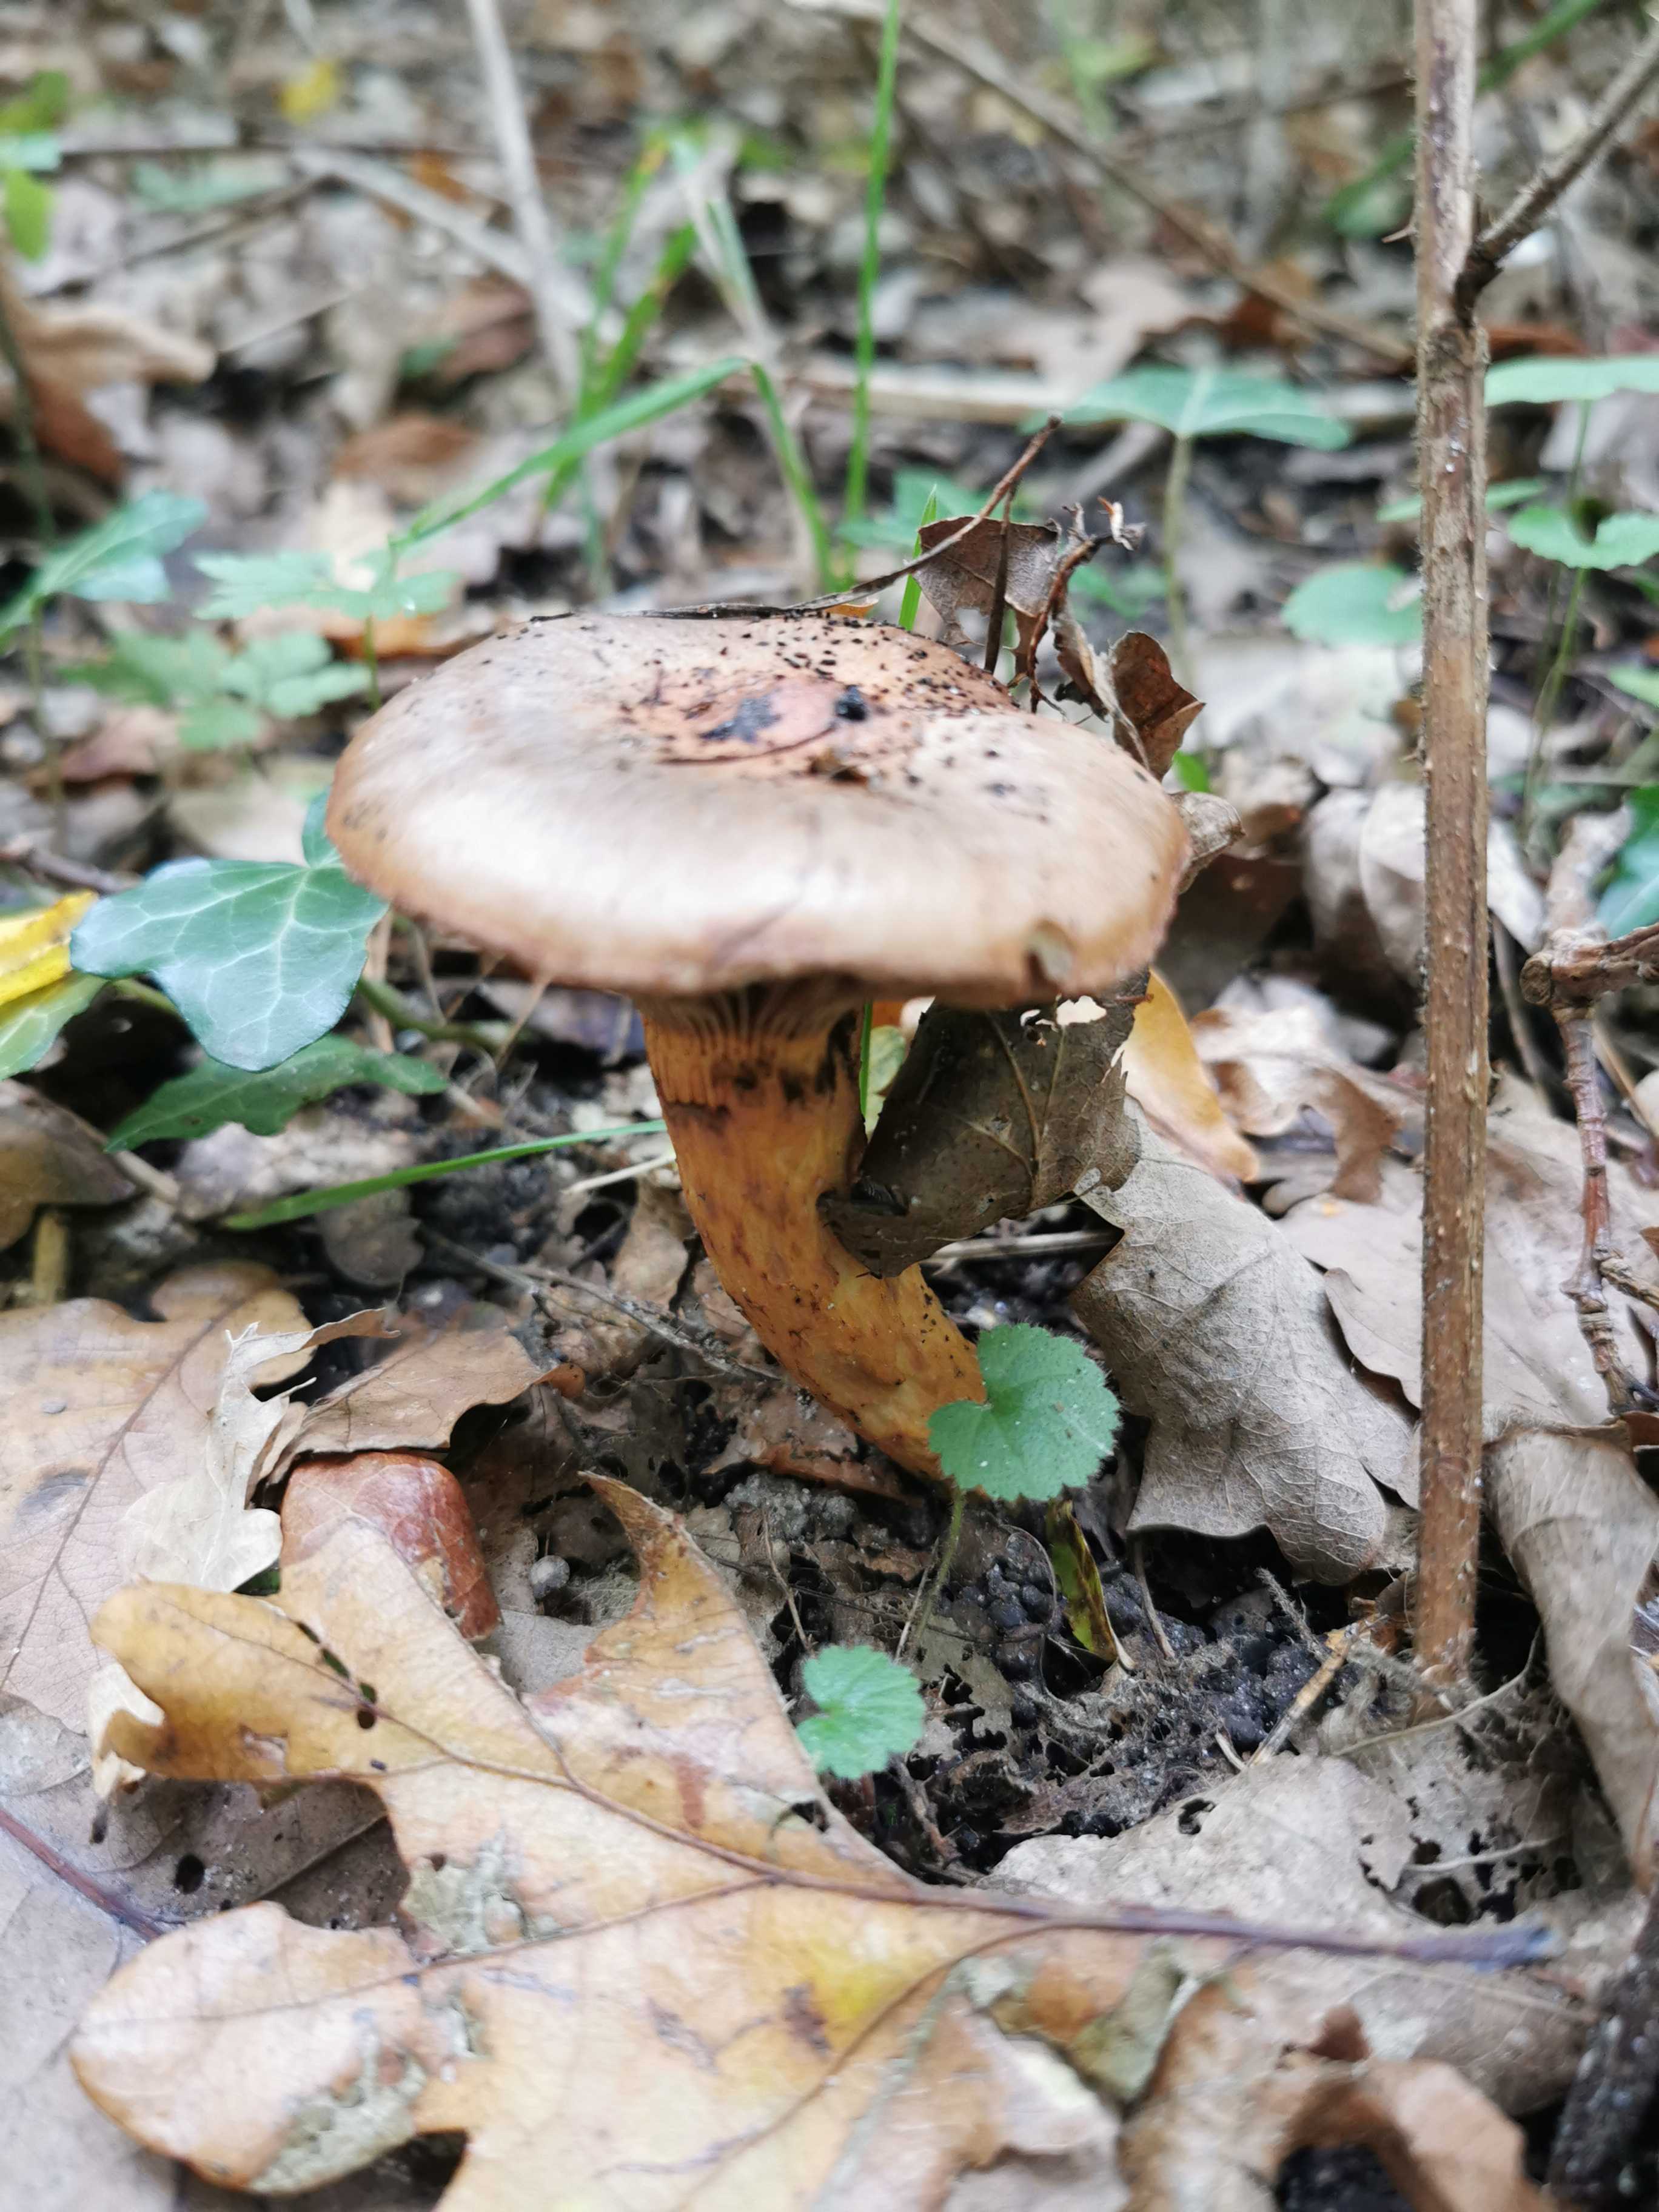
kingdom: Fungi
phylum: Basidiomycota
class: Agaricomycetes
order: Boletales
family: Gomphidiaceae
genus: Chroogomphus
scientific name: Chroogomphus
